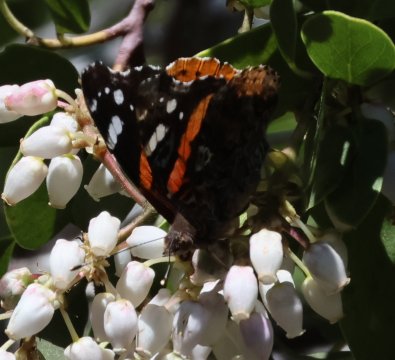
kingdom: Animalia
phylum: Arthropoda
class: Insecta
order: Lepidoptera
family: Nymphalidae
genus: Vanessa
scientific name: Vanessa atalanta
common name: Red Admiral
